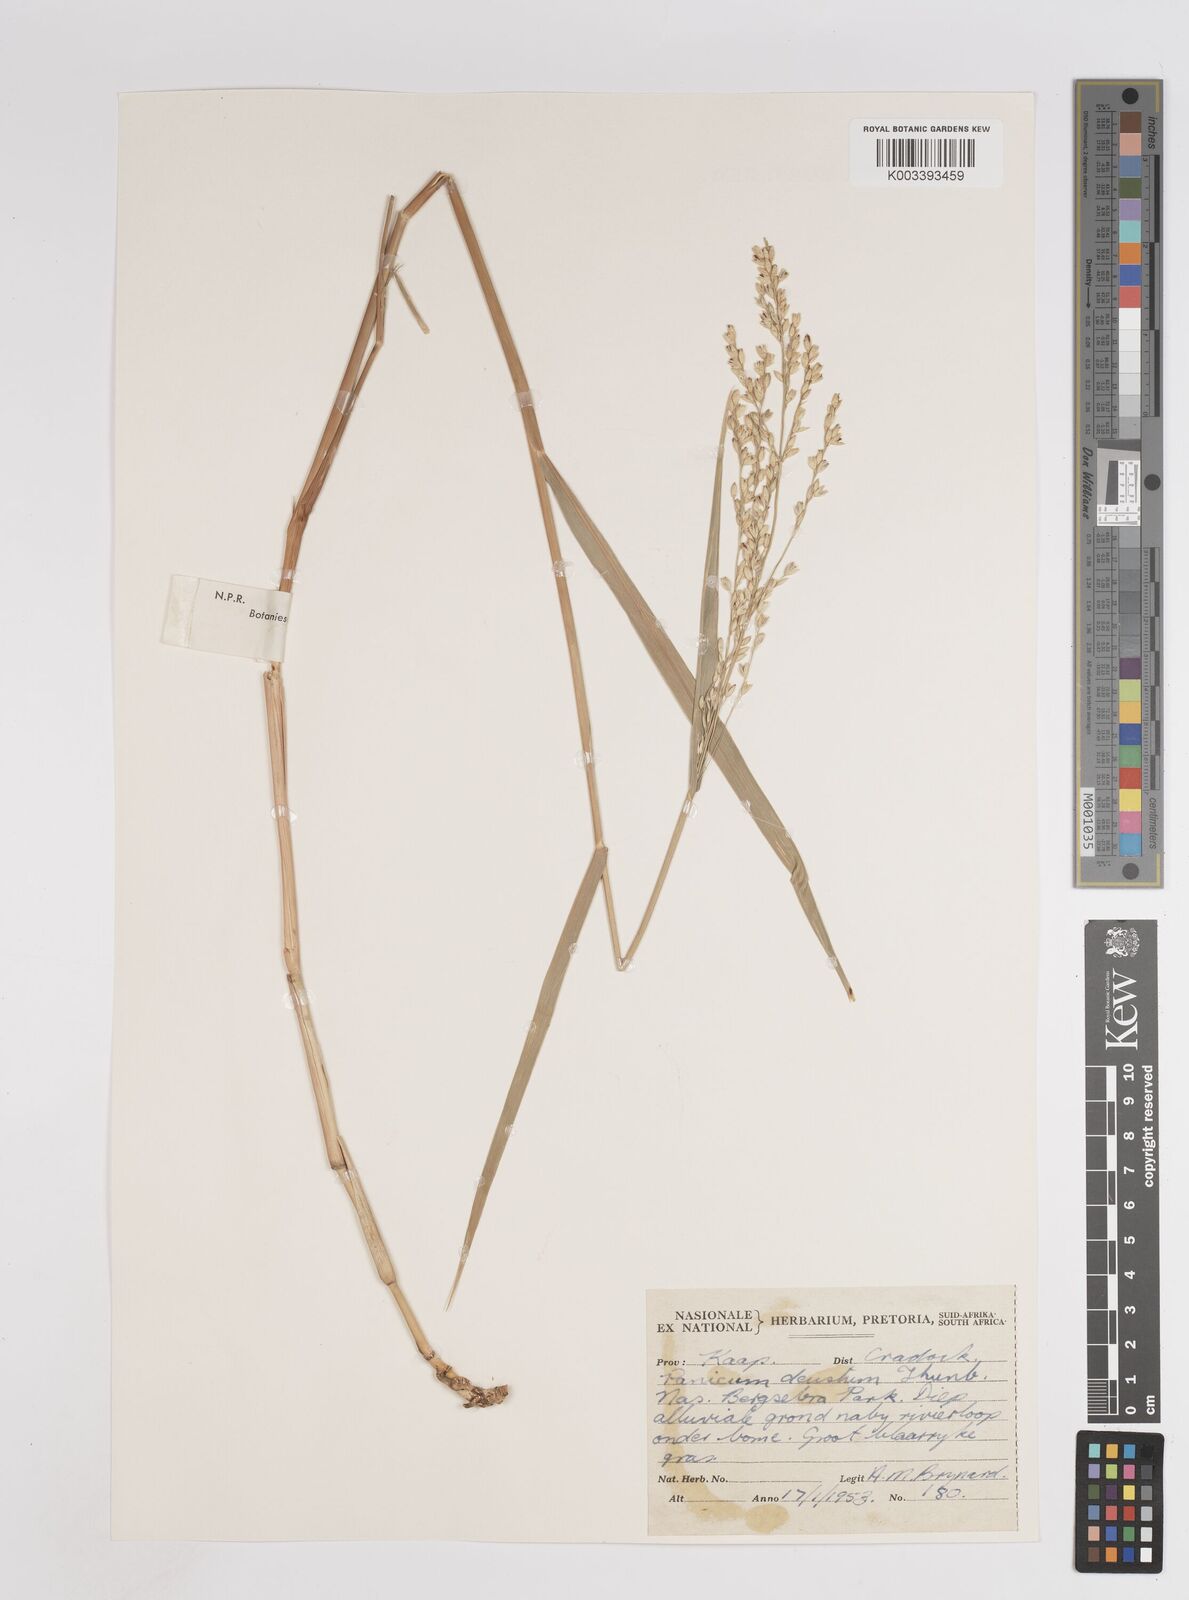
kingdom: Plantae
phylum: Tracheophyta
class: Liliopsida
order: Poales
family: Poaceae
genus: Panicum
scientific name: Panicum deustum
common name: Reed panicum
